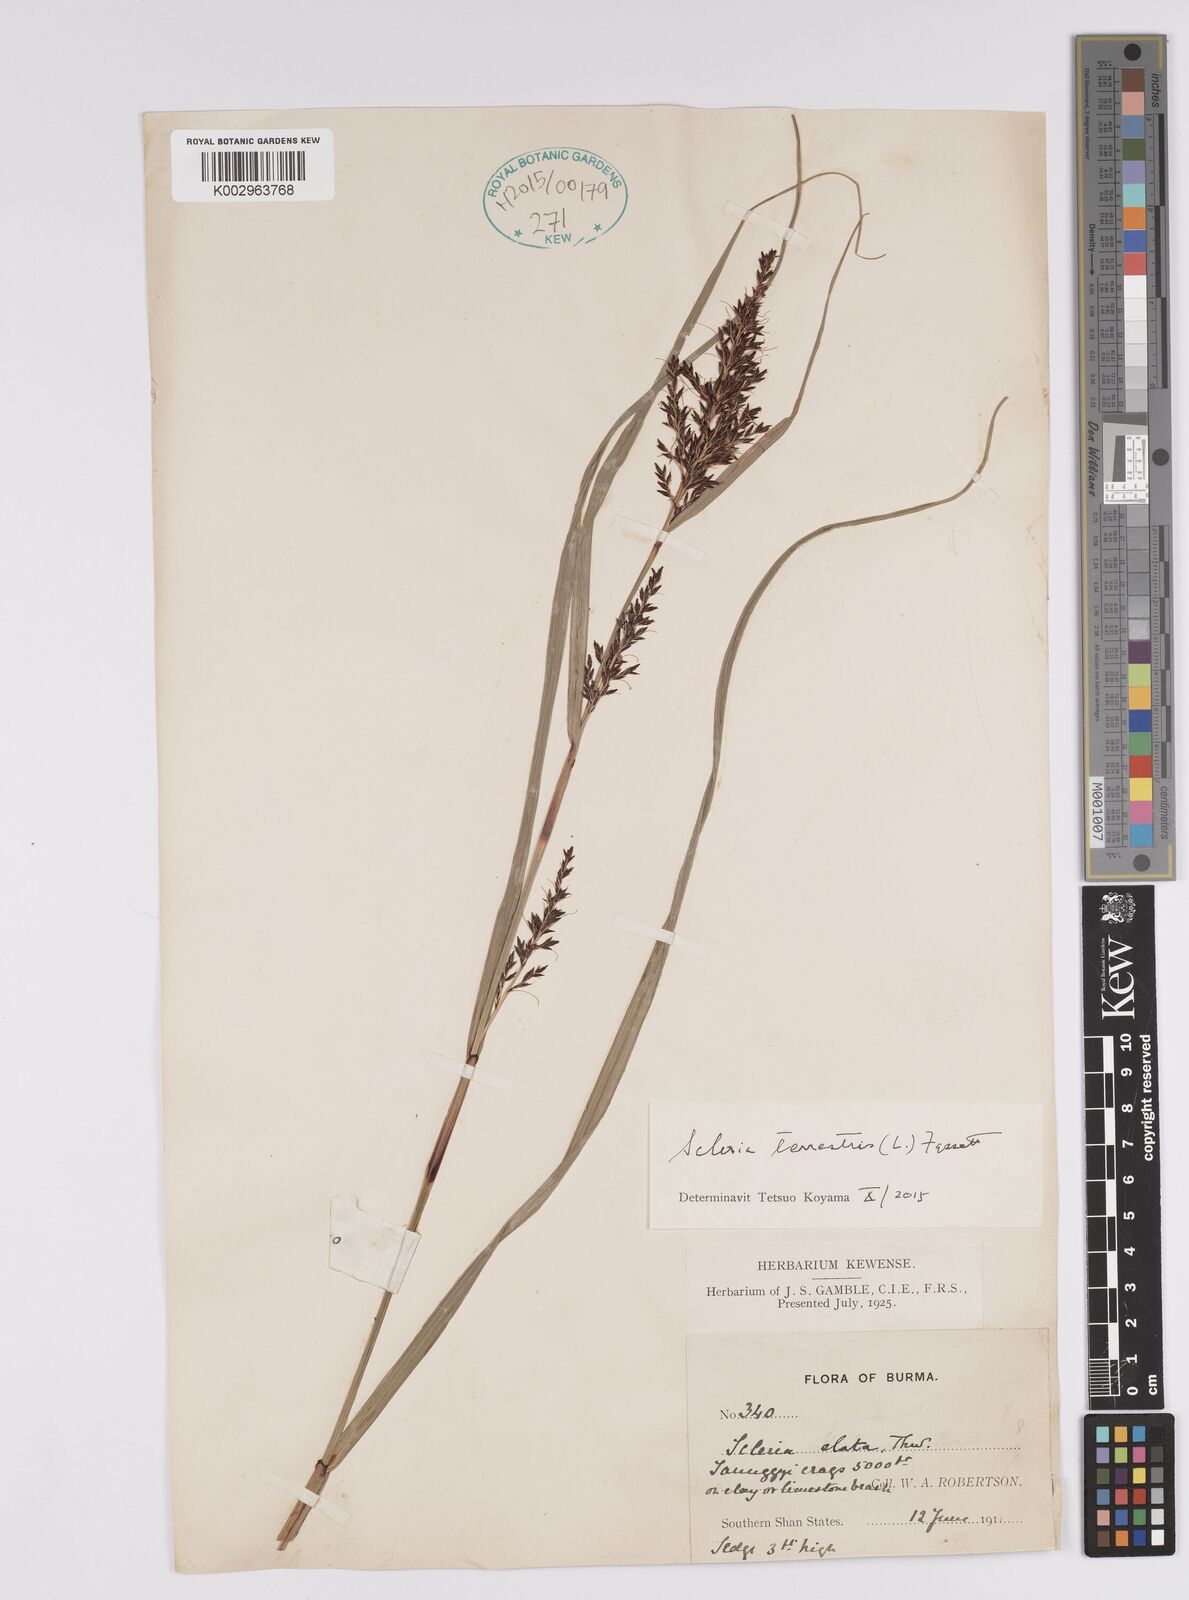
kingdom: Plantae
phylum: Tracheophyta
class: Liliopsida
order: Poales
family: Cyperaceae
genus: Scleria
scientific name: Scleria terrestris
